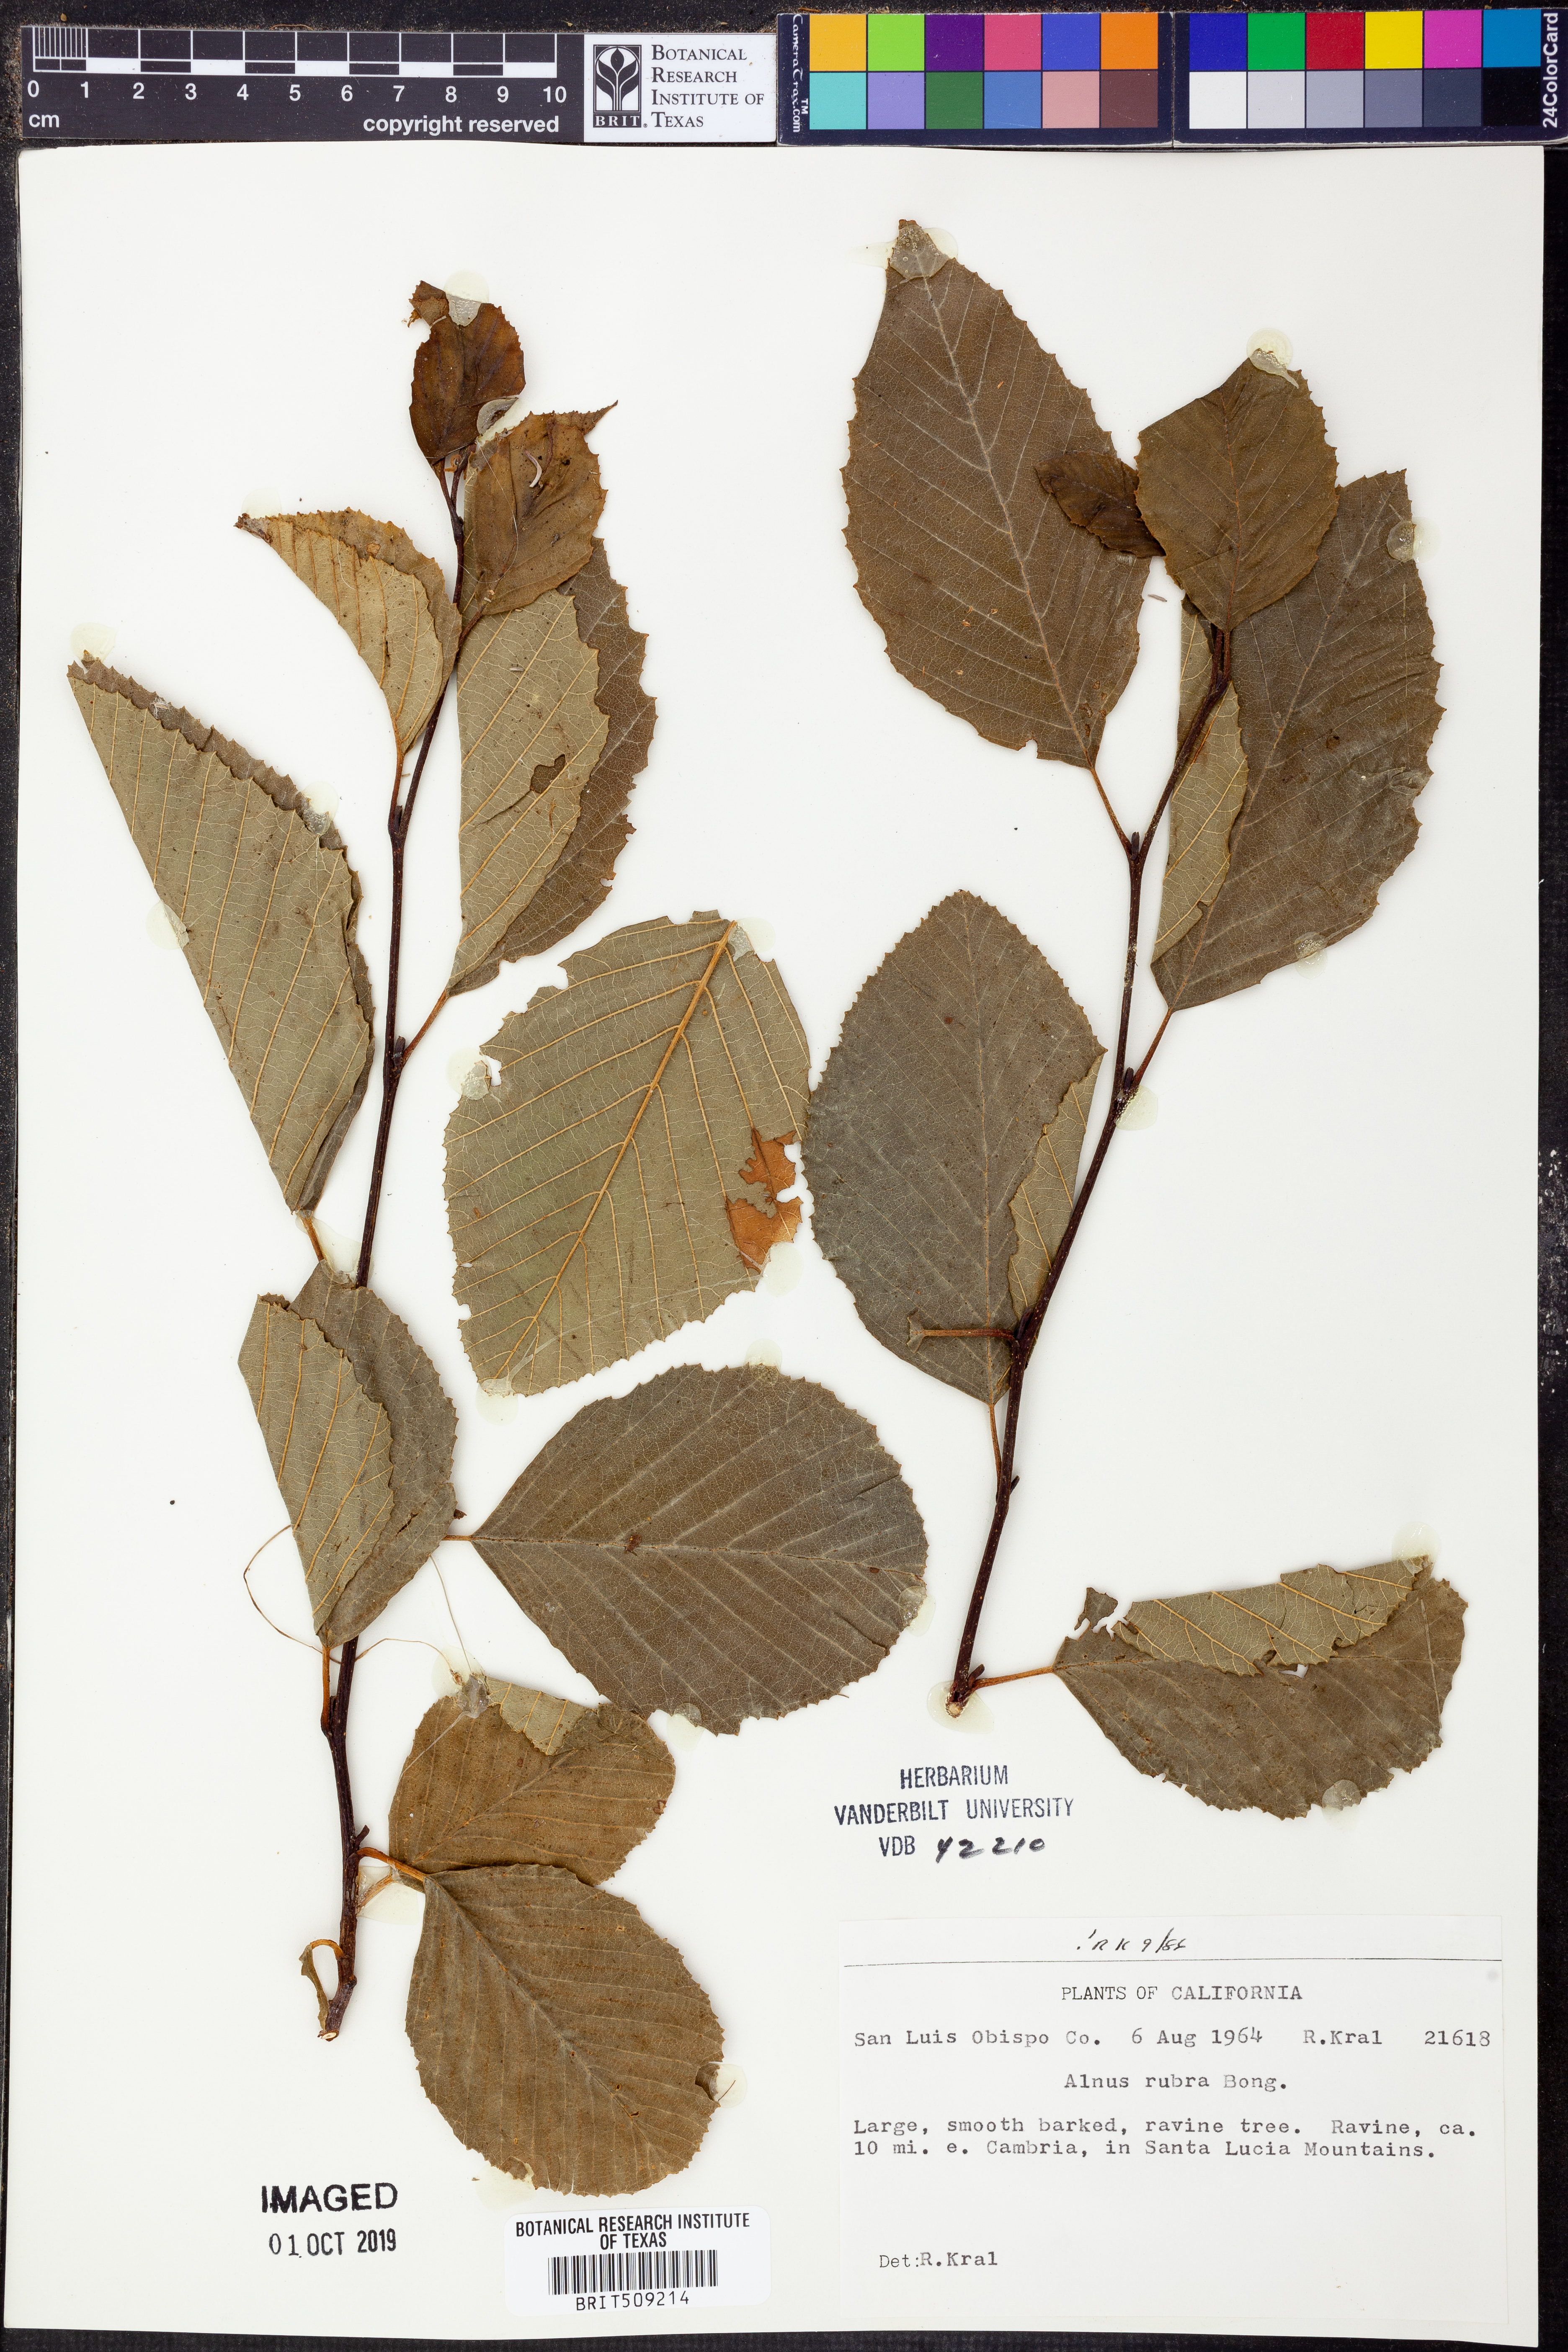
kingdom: Plantae
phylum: Tracheophyta
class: Magnoliopsida
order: Fagales
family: Betulaceae
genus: Alnus
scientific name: Alnus rubra
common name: Red alder
